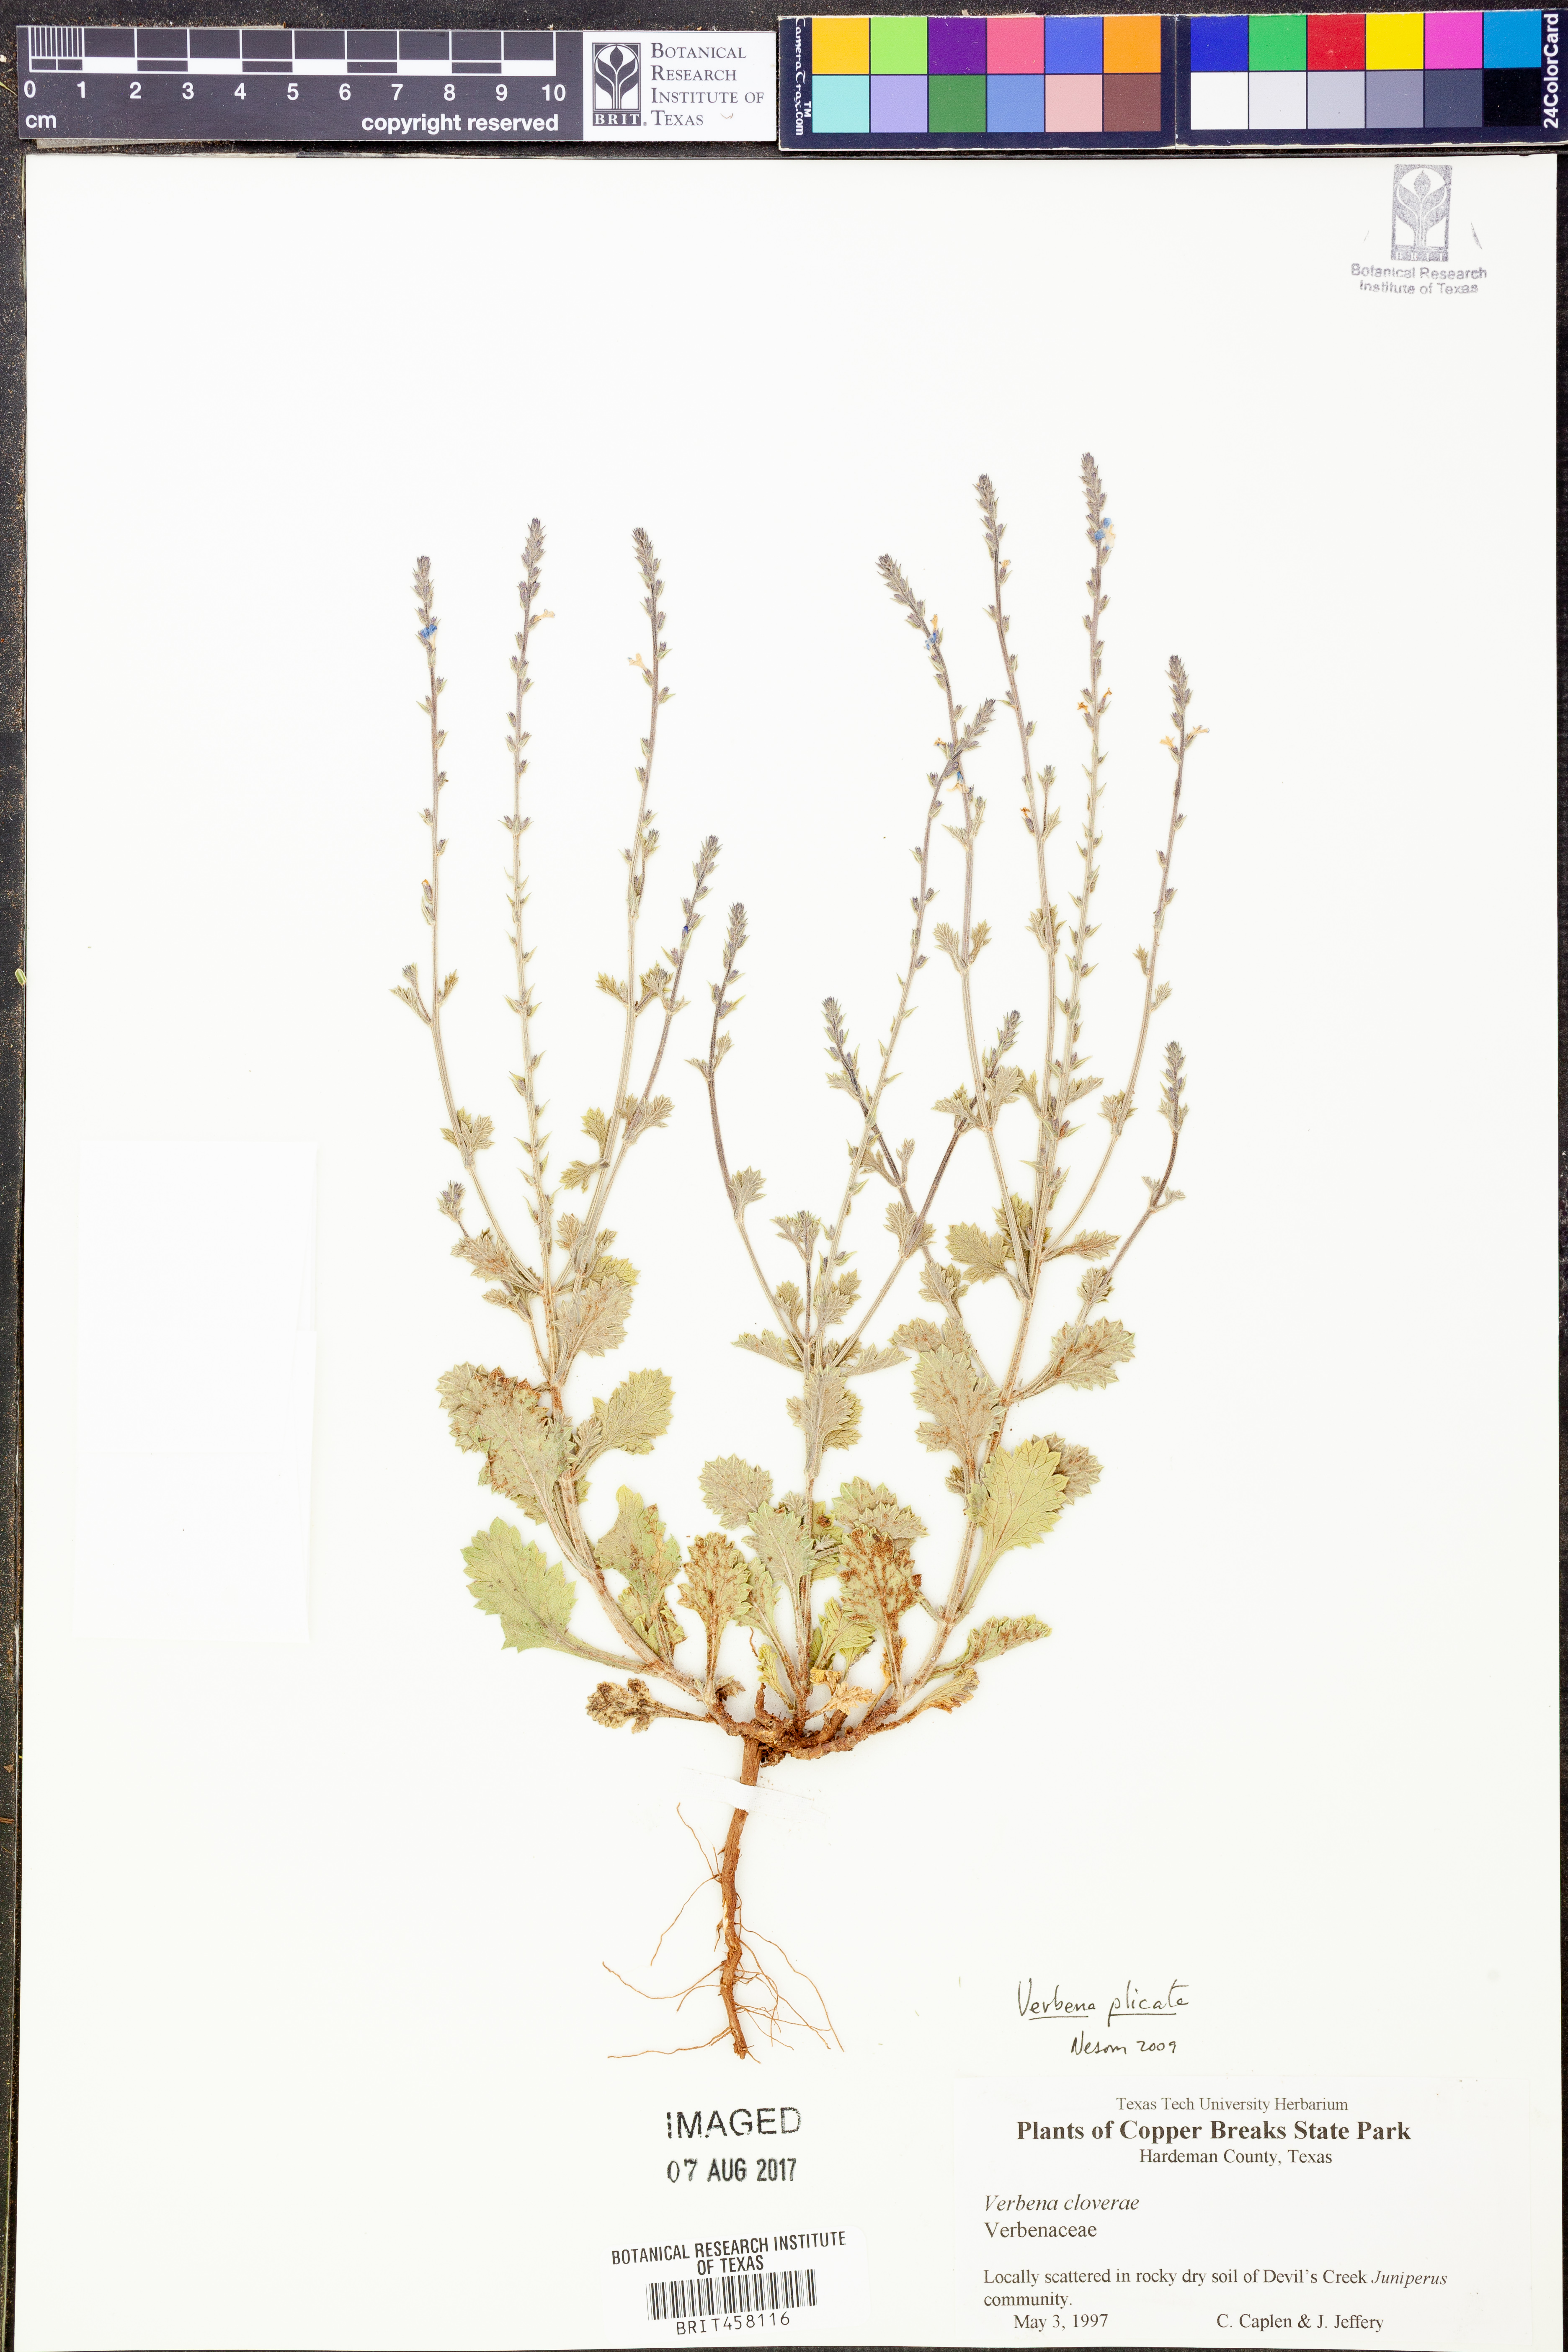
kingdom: Plantae
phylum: Tracheophyta
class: Magnoliopsida
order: Lamiales
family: Verbenaceae
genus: Verbena
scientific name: Verbena plicata
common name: Fan-leaf vervain
